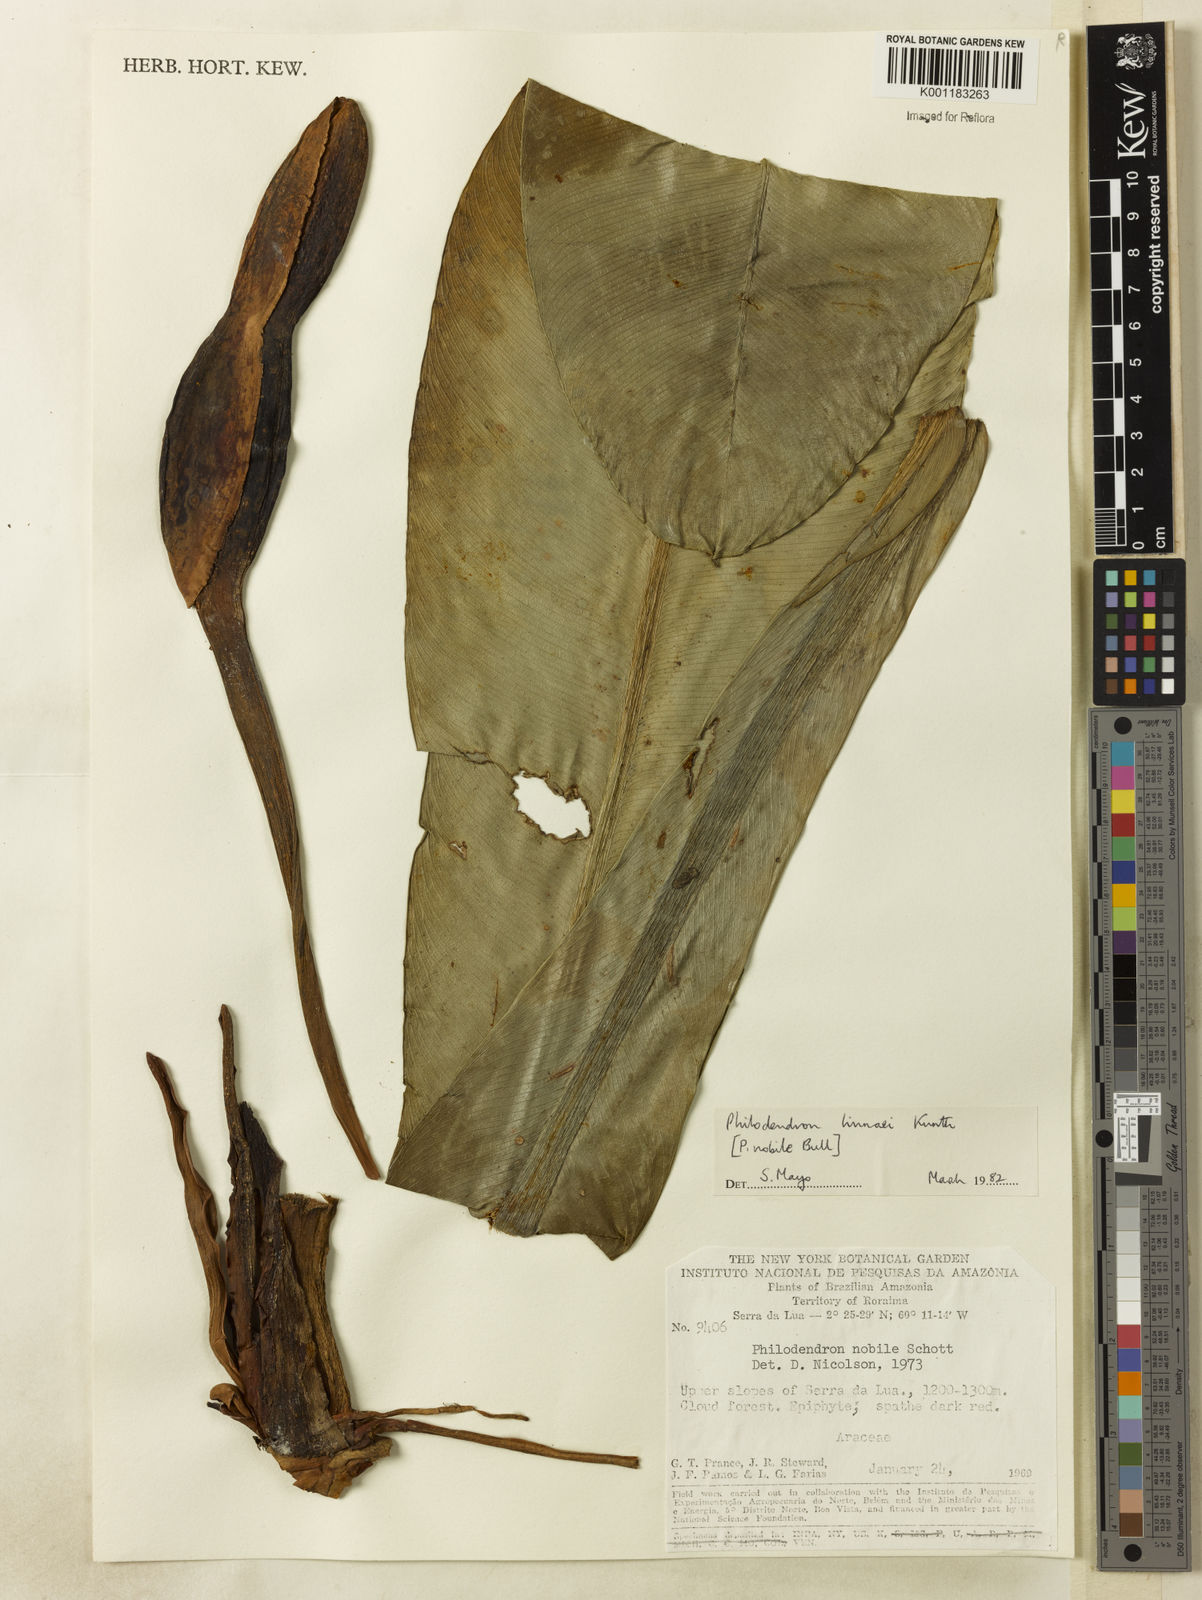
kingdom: Plantae
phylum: Tracheophyta
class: Liliopsida
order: Alismatales
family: Araceae
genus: Philodendron
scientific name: Philodendron linnaei
